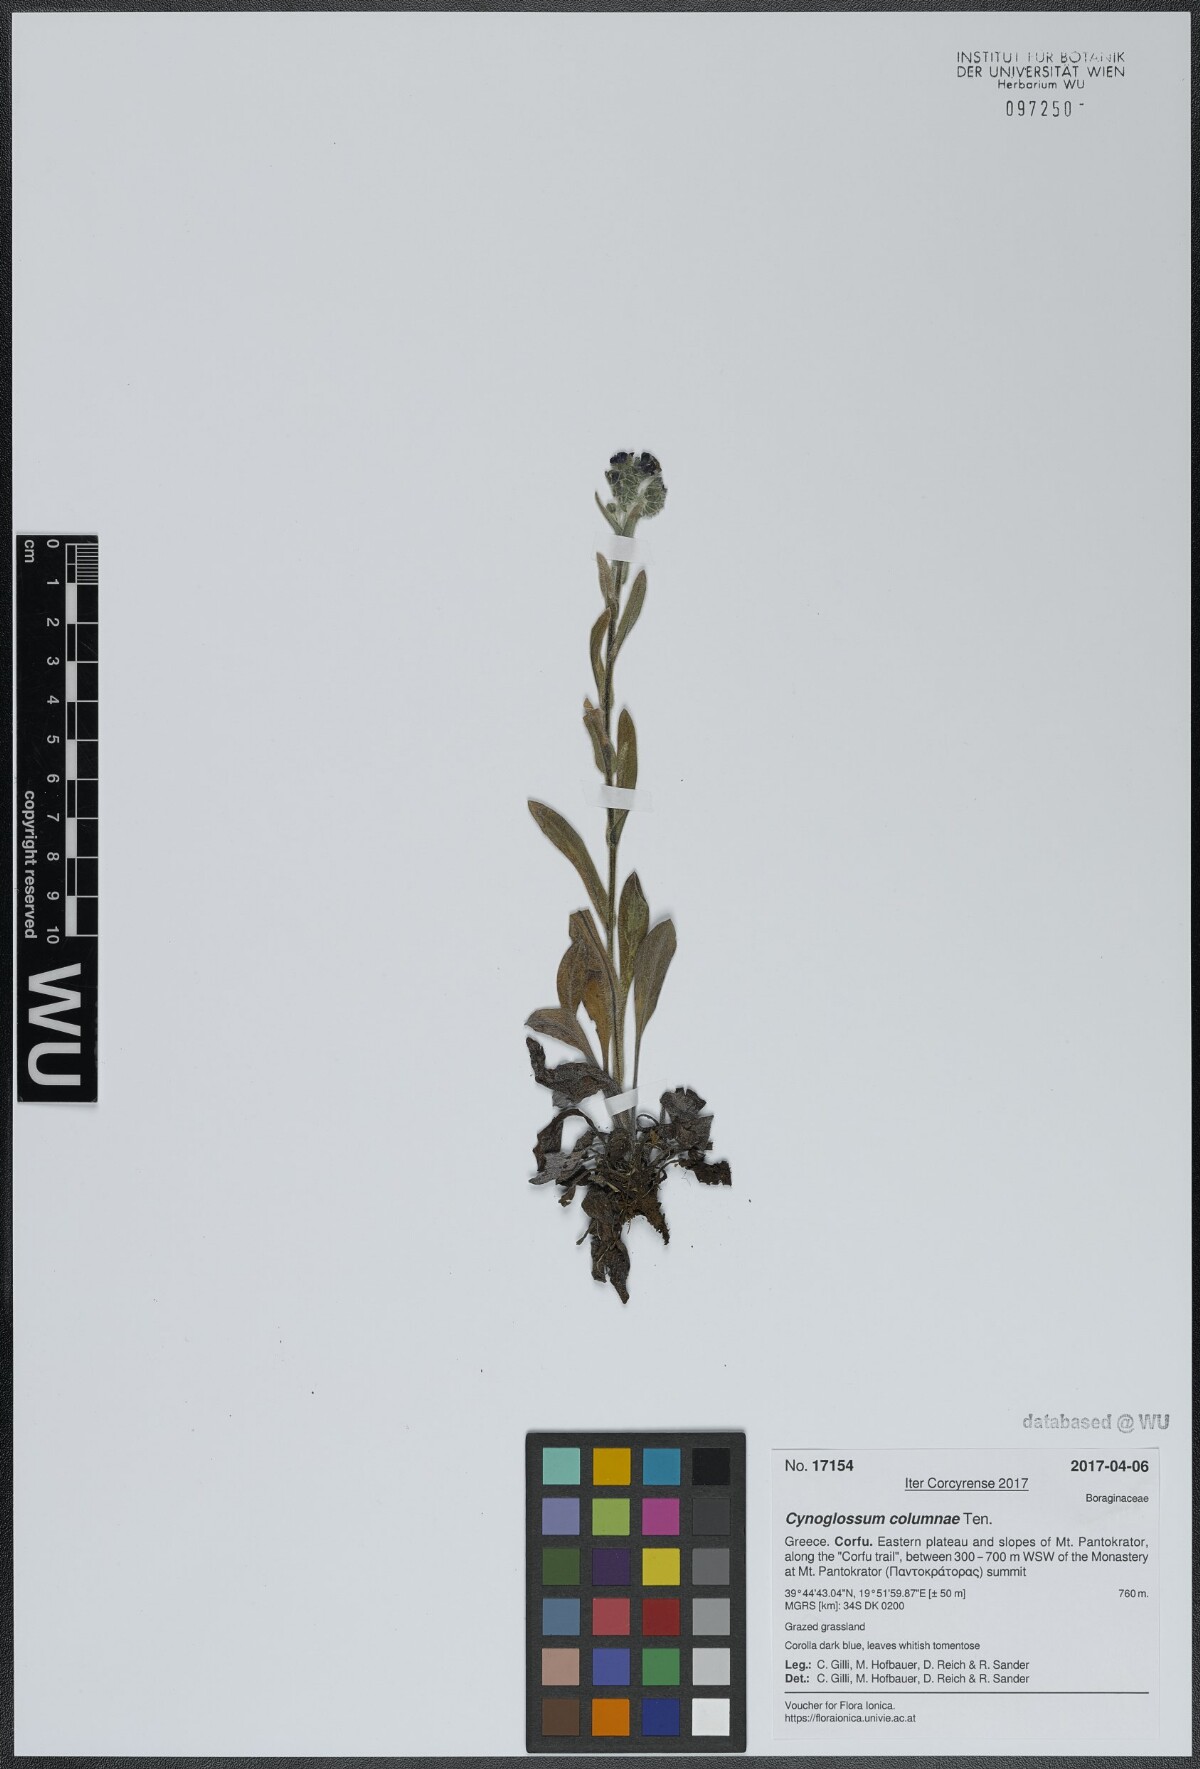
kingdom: Plantae
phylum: Tracheophyta
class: Magnoliopsida
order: Boraginales
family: Boraginaceae
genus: Rindera
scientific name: Rindera columnae
